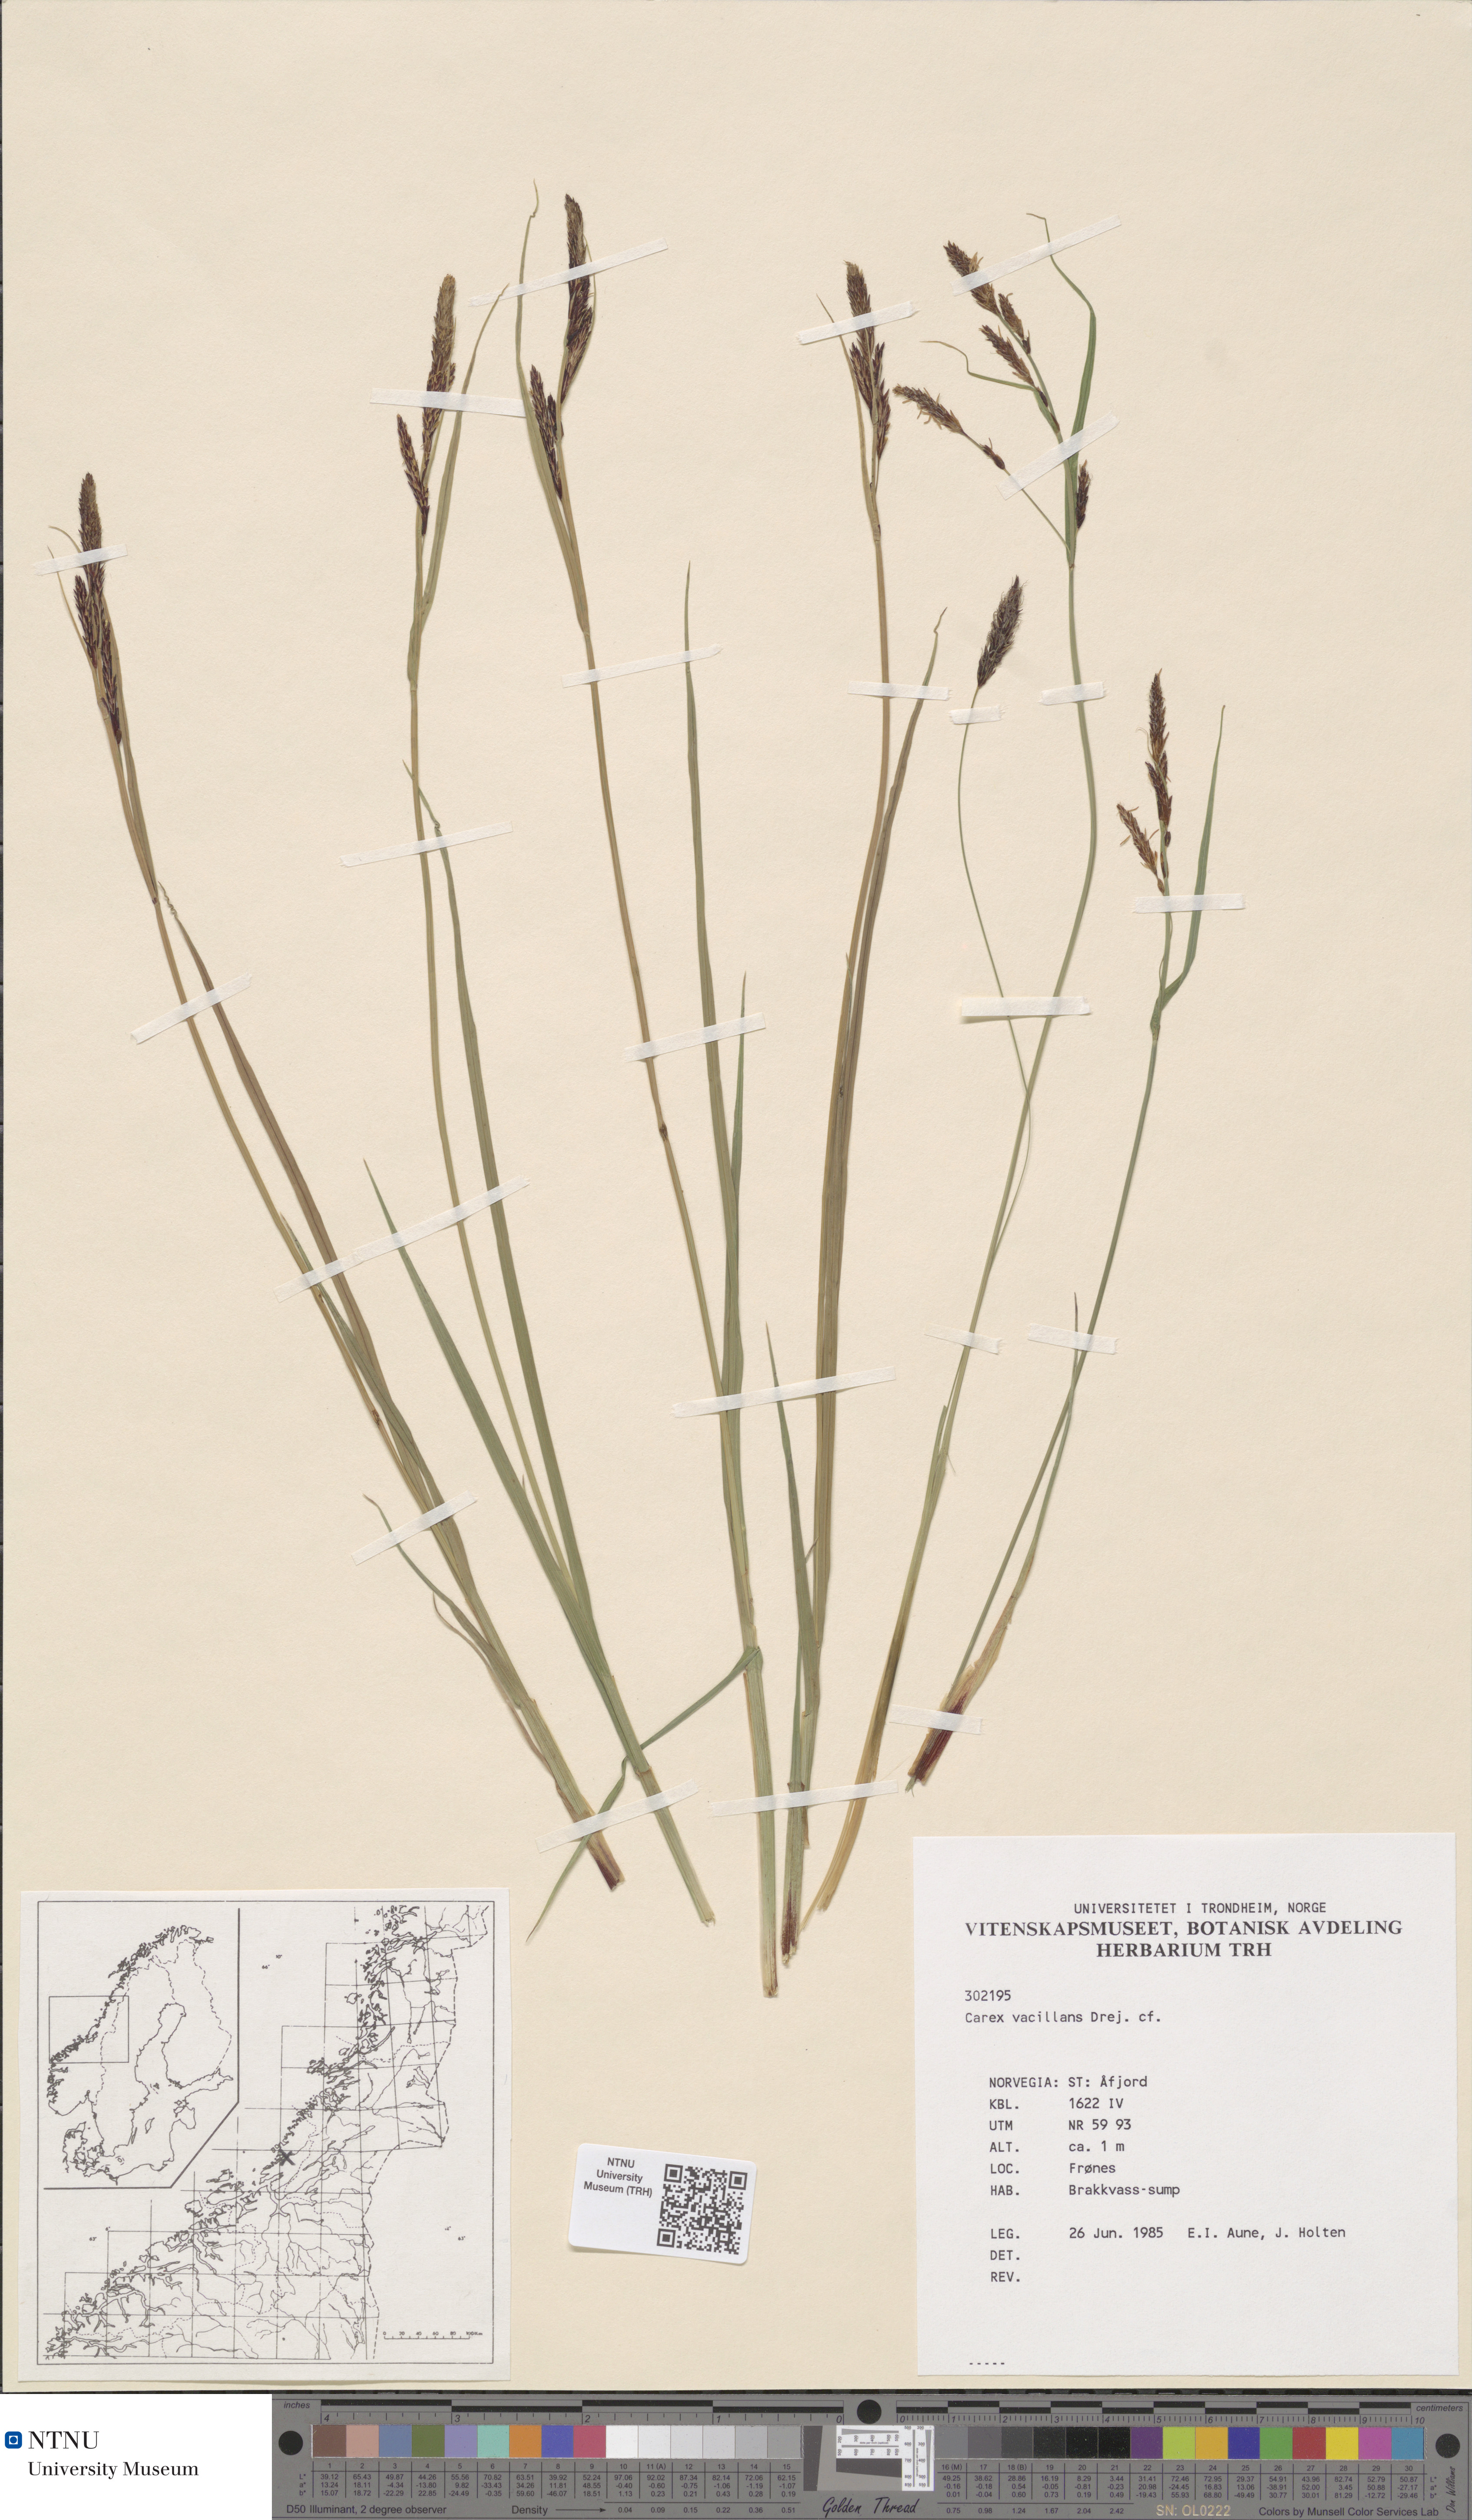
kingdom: Plantae
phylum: Tracheophyta
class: Liliopsida
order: Poales
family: Cyperaceae
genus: Carex
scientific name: Carex vacillans
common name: Sedge
